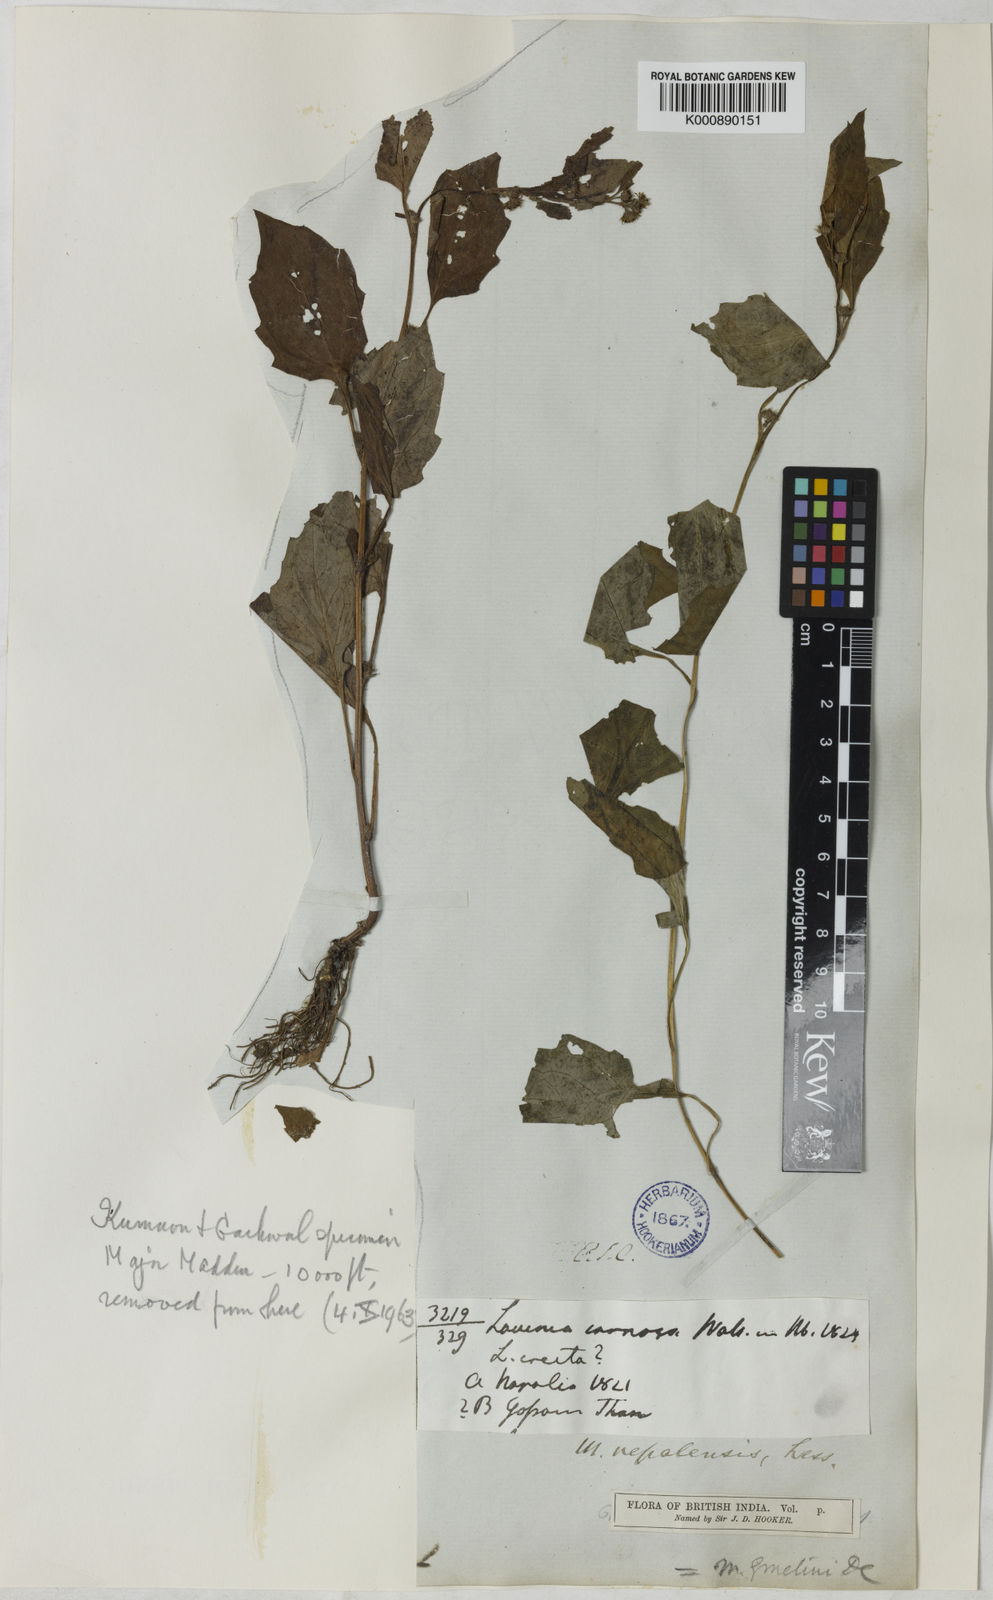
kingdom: Plantae
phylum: Tracheophyta
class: Magnoliopsida
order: Asterales
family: Asteraceae
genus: Myriactis
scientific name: Myriactis
